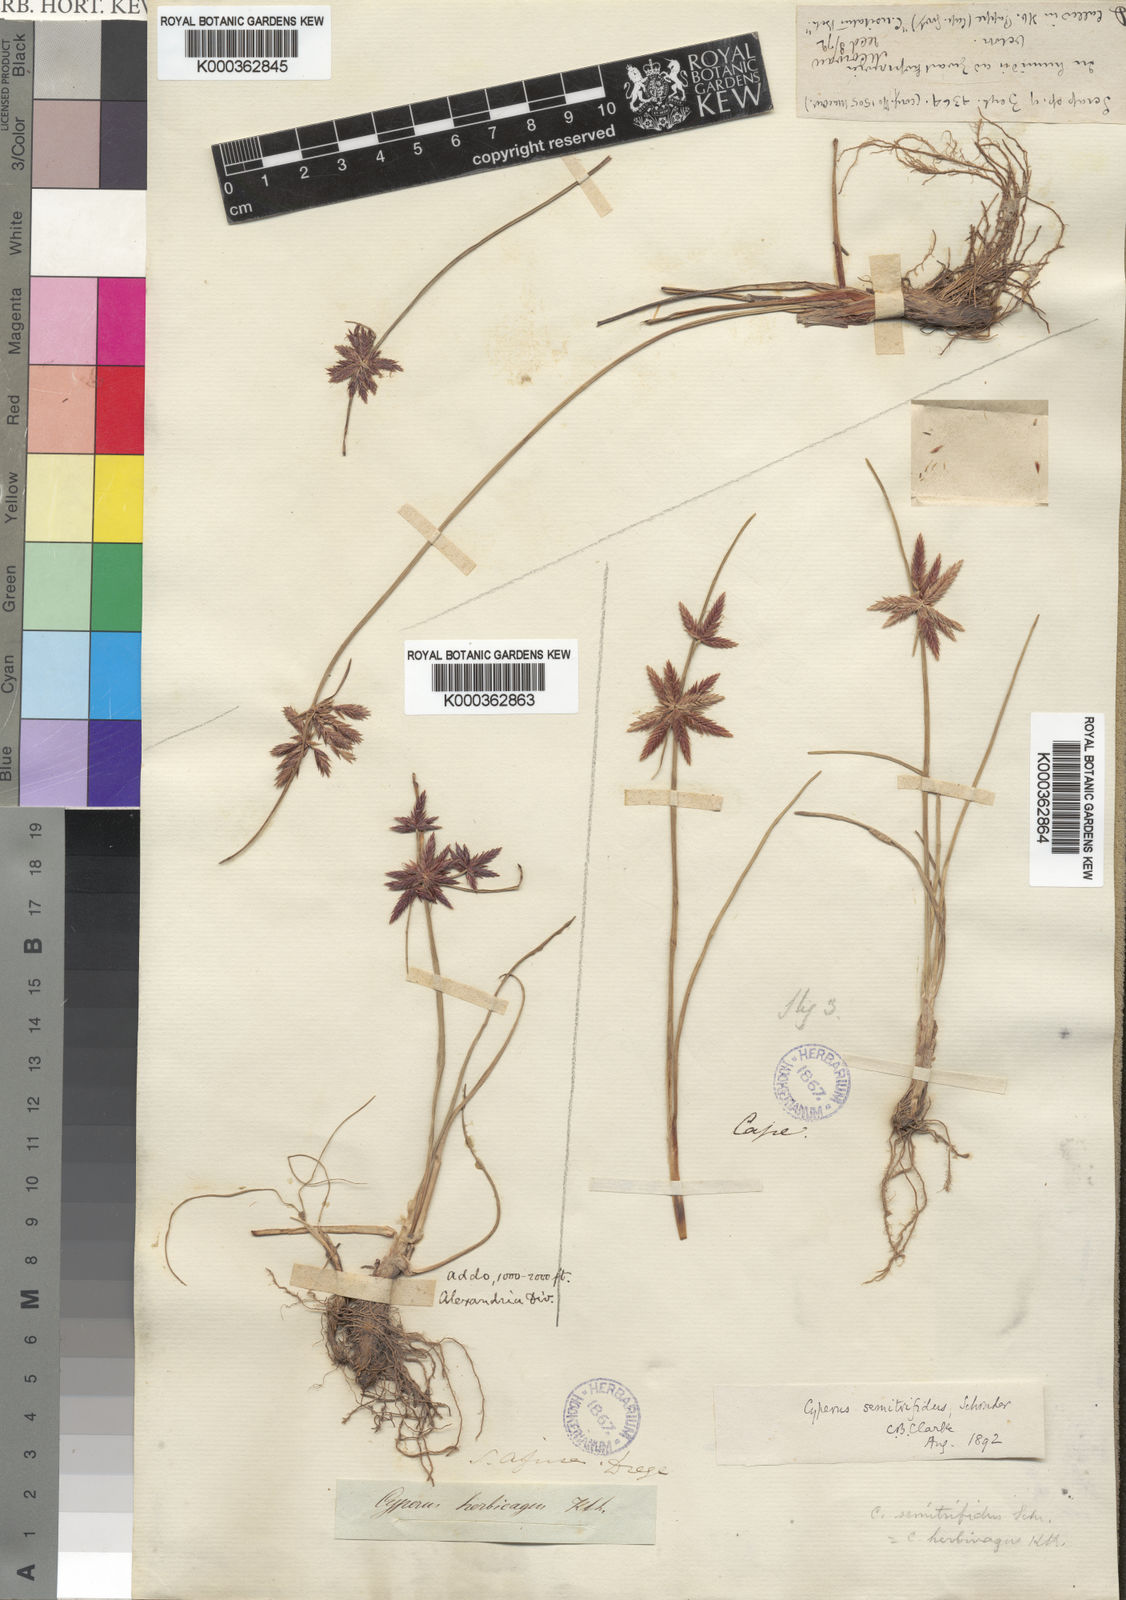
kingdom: Plantae
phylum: Tracheophyta
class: Liliopsida
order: Poales
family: Cyperaceae
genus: Cyperus
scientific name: Cyperus semitrifidus
